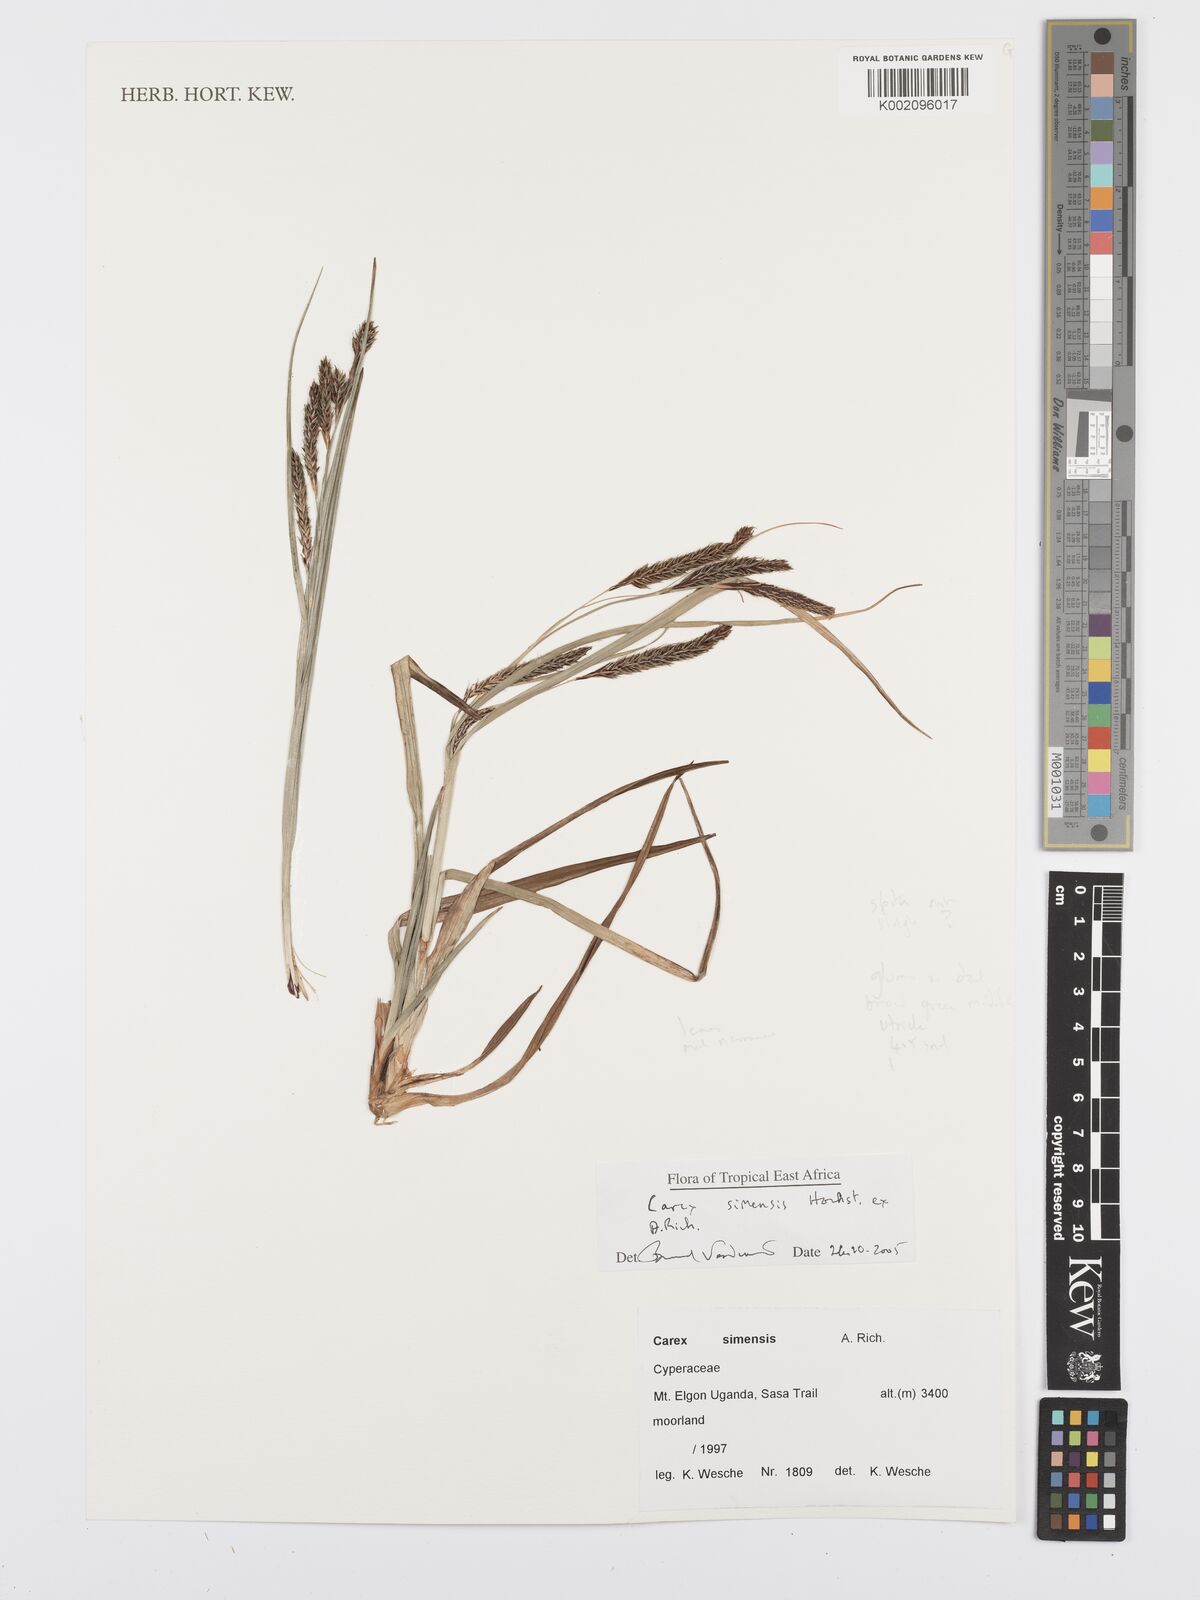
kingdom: Plantae
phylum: Tracheophyta
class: Liliopsida
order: Poales
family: Cyperaceae
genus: Carex
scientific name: Carex simensis
